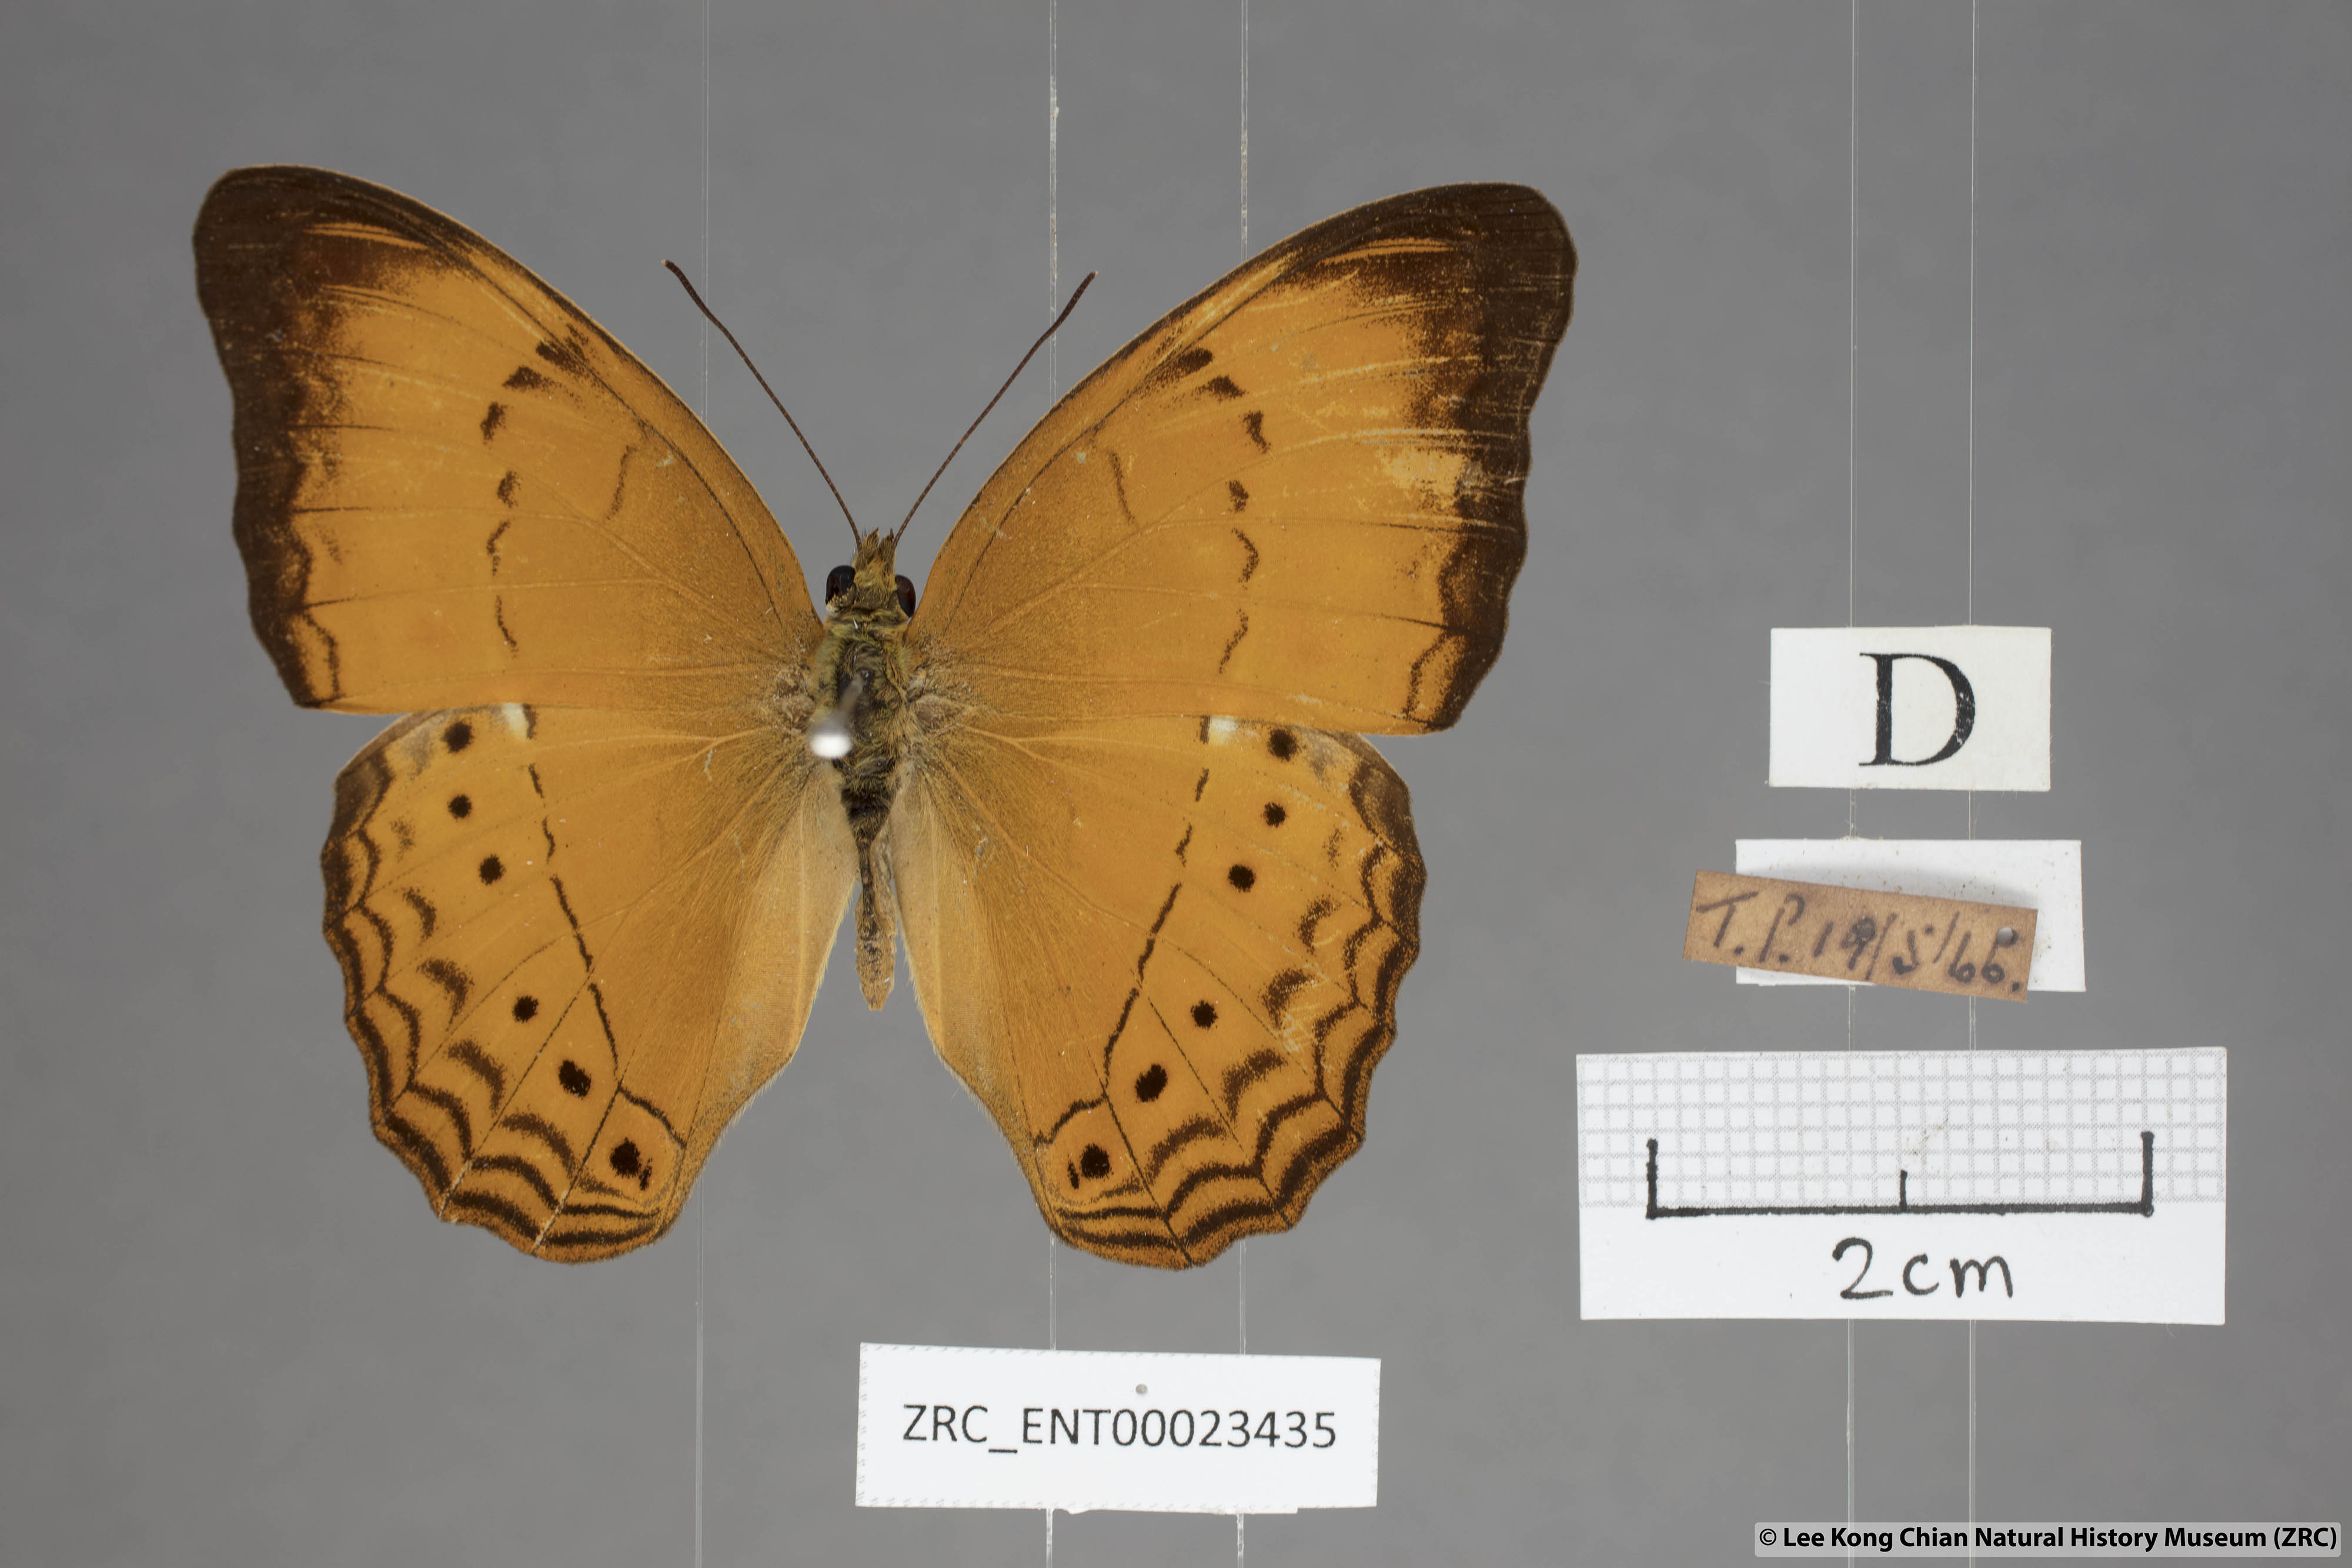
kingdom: Animalia
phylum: Arthropoda
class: Insecta
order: Lepidoptera
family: Nymphalidae
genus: Cirrochroa
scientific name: Cirrochroa malaya
